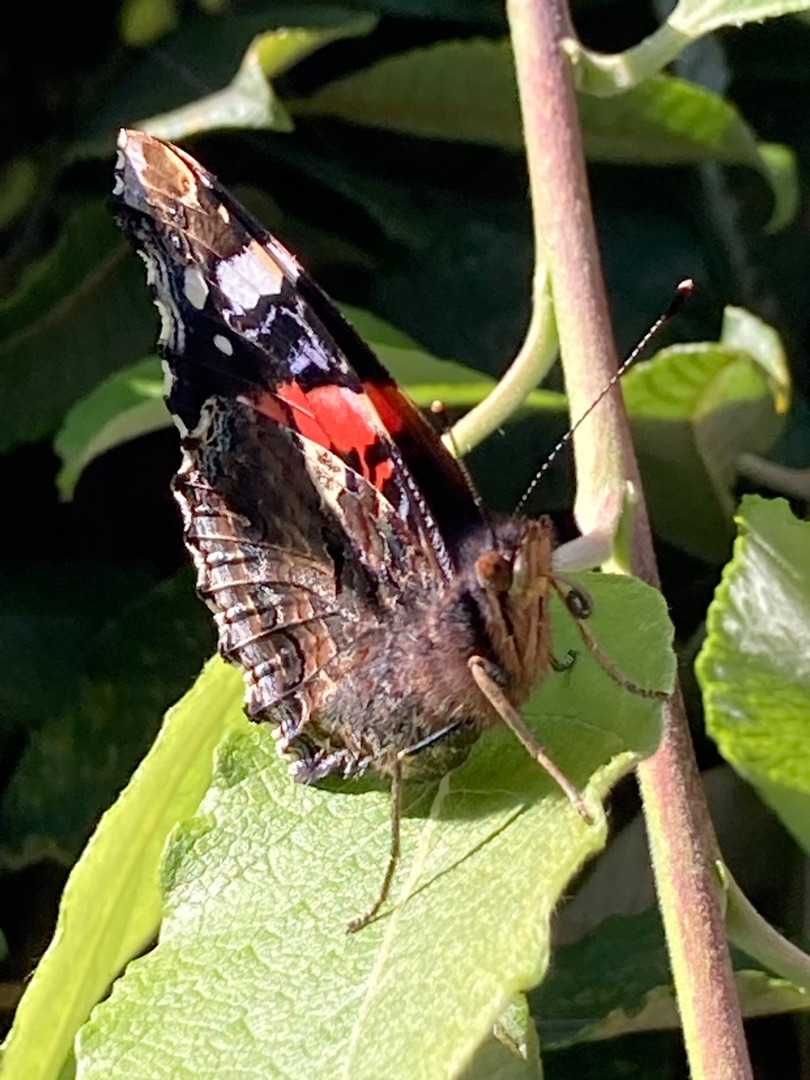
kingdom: Animalia
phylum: Arthropoda
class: Insecta
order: Lepidoptera
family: Nymphalidae
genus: Vanessa
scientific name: Vanessa atalanta
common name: Admiral
